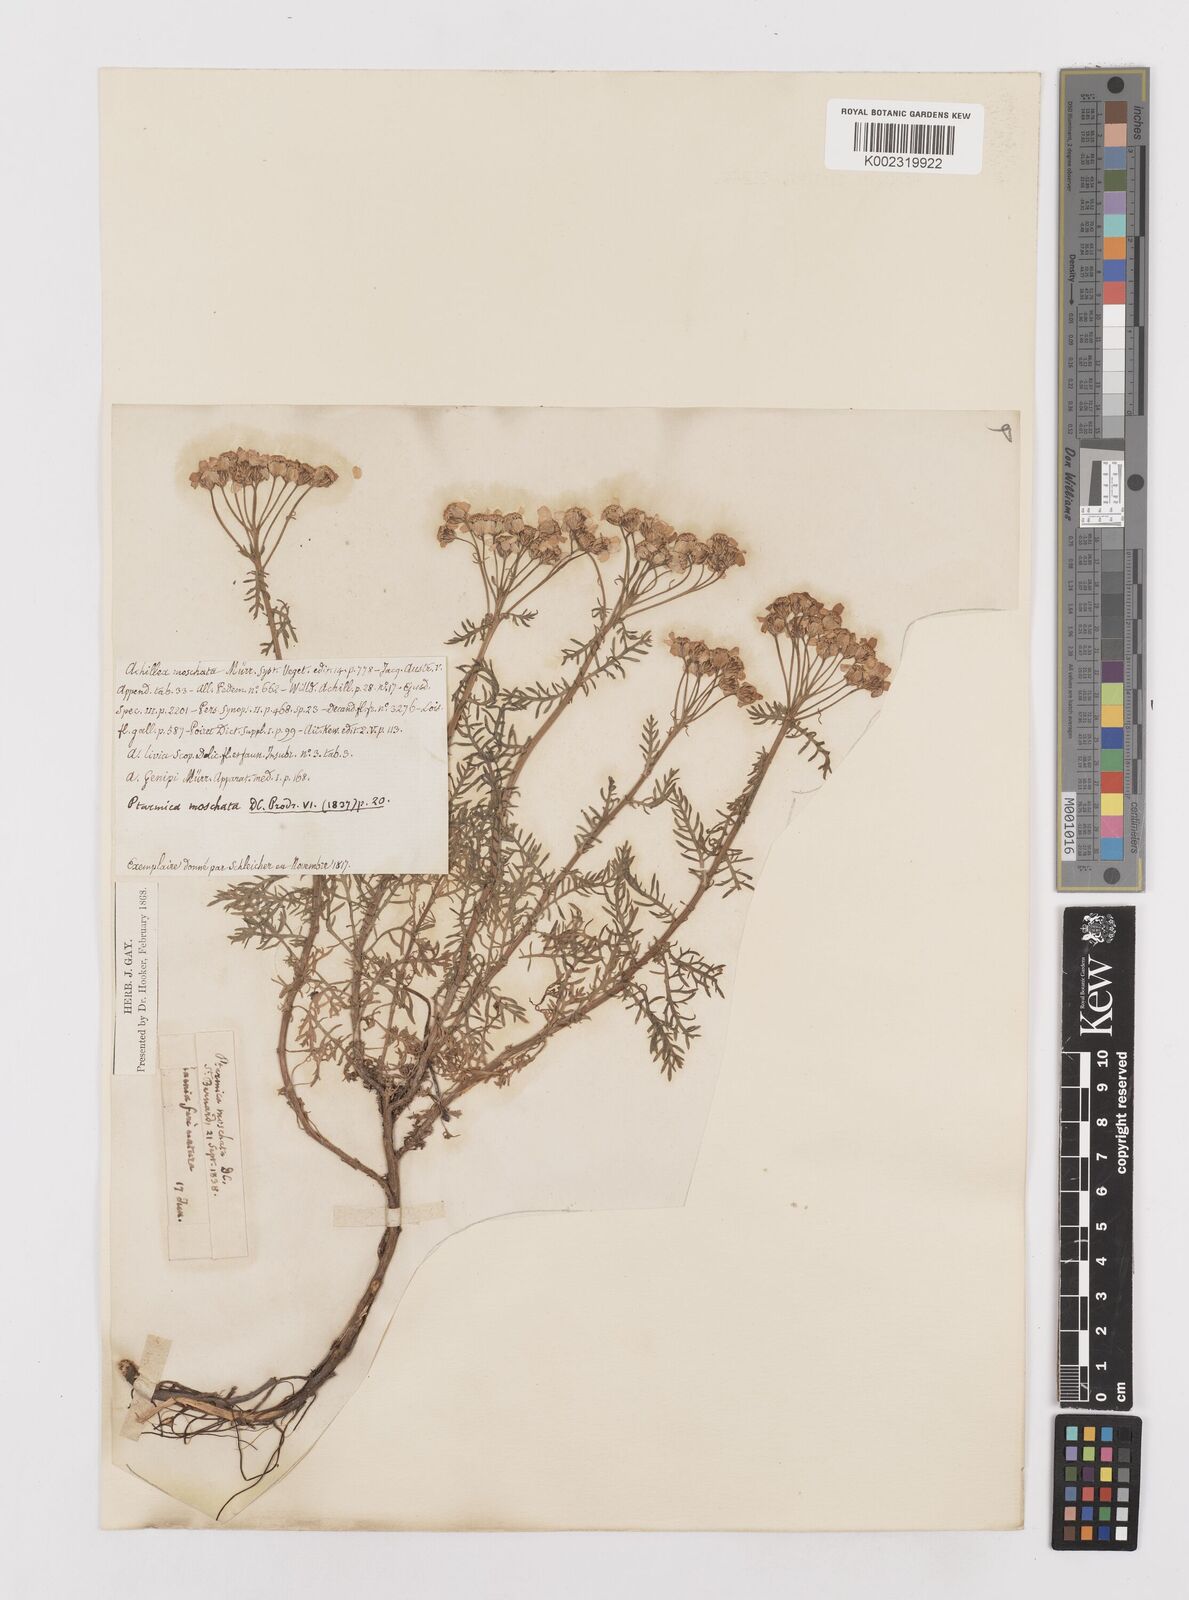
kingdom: Plantae
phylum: Tracheophyta
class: Magnoliopsida
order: Asterales
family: Asteraceae
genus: Achillea
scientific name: Achillea erba-rotta
